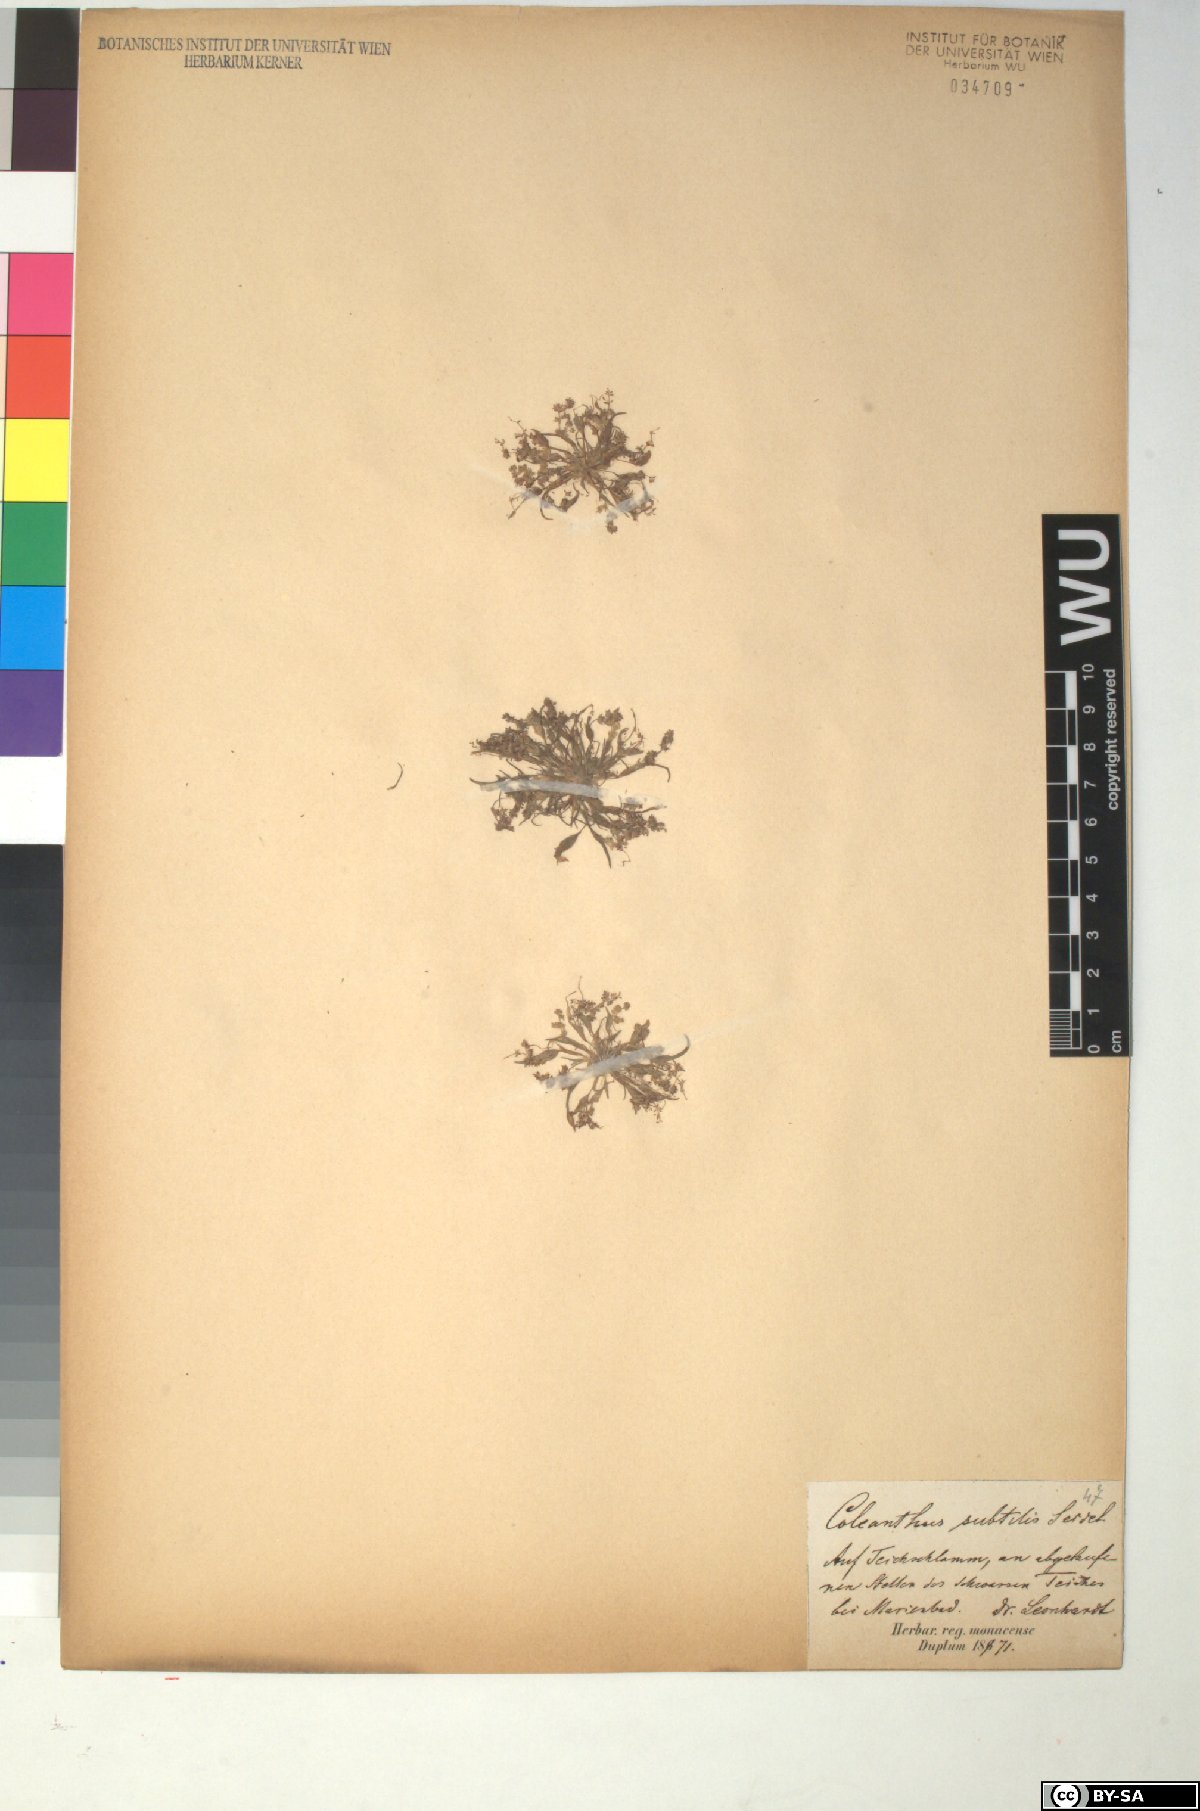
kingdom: Plantae
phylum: Tracheophyta
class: Liliopsida
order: Poales
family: Poaceae
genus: Coleanthus
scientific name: Coleanthus subtilis
